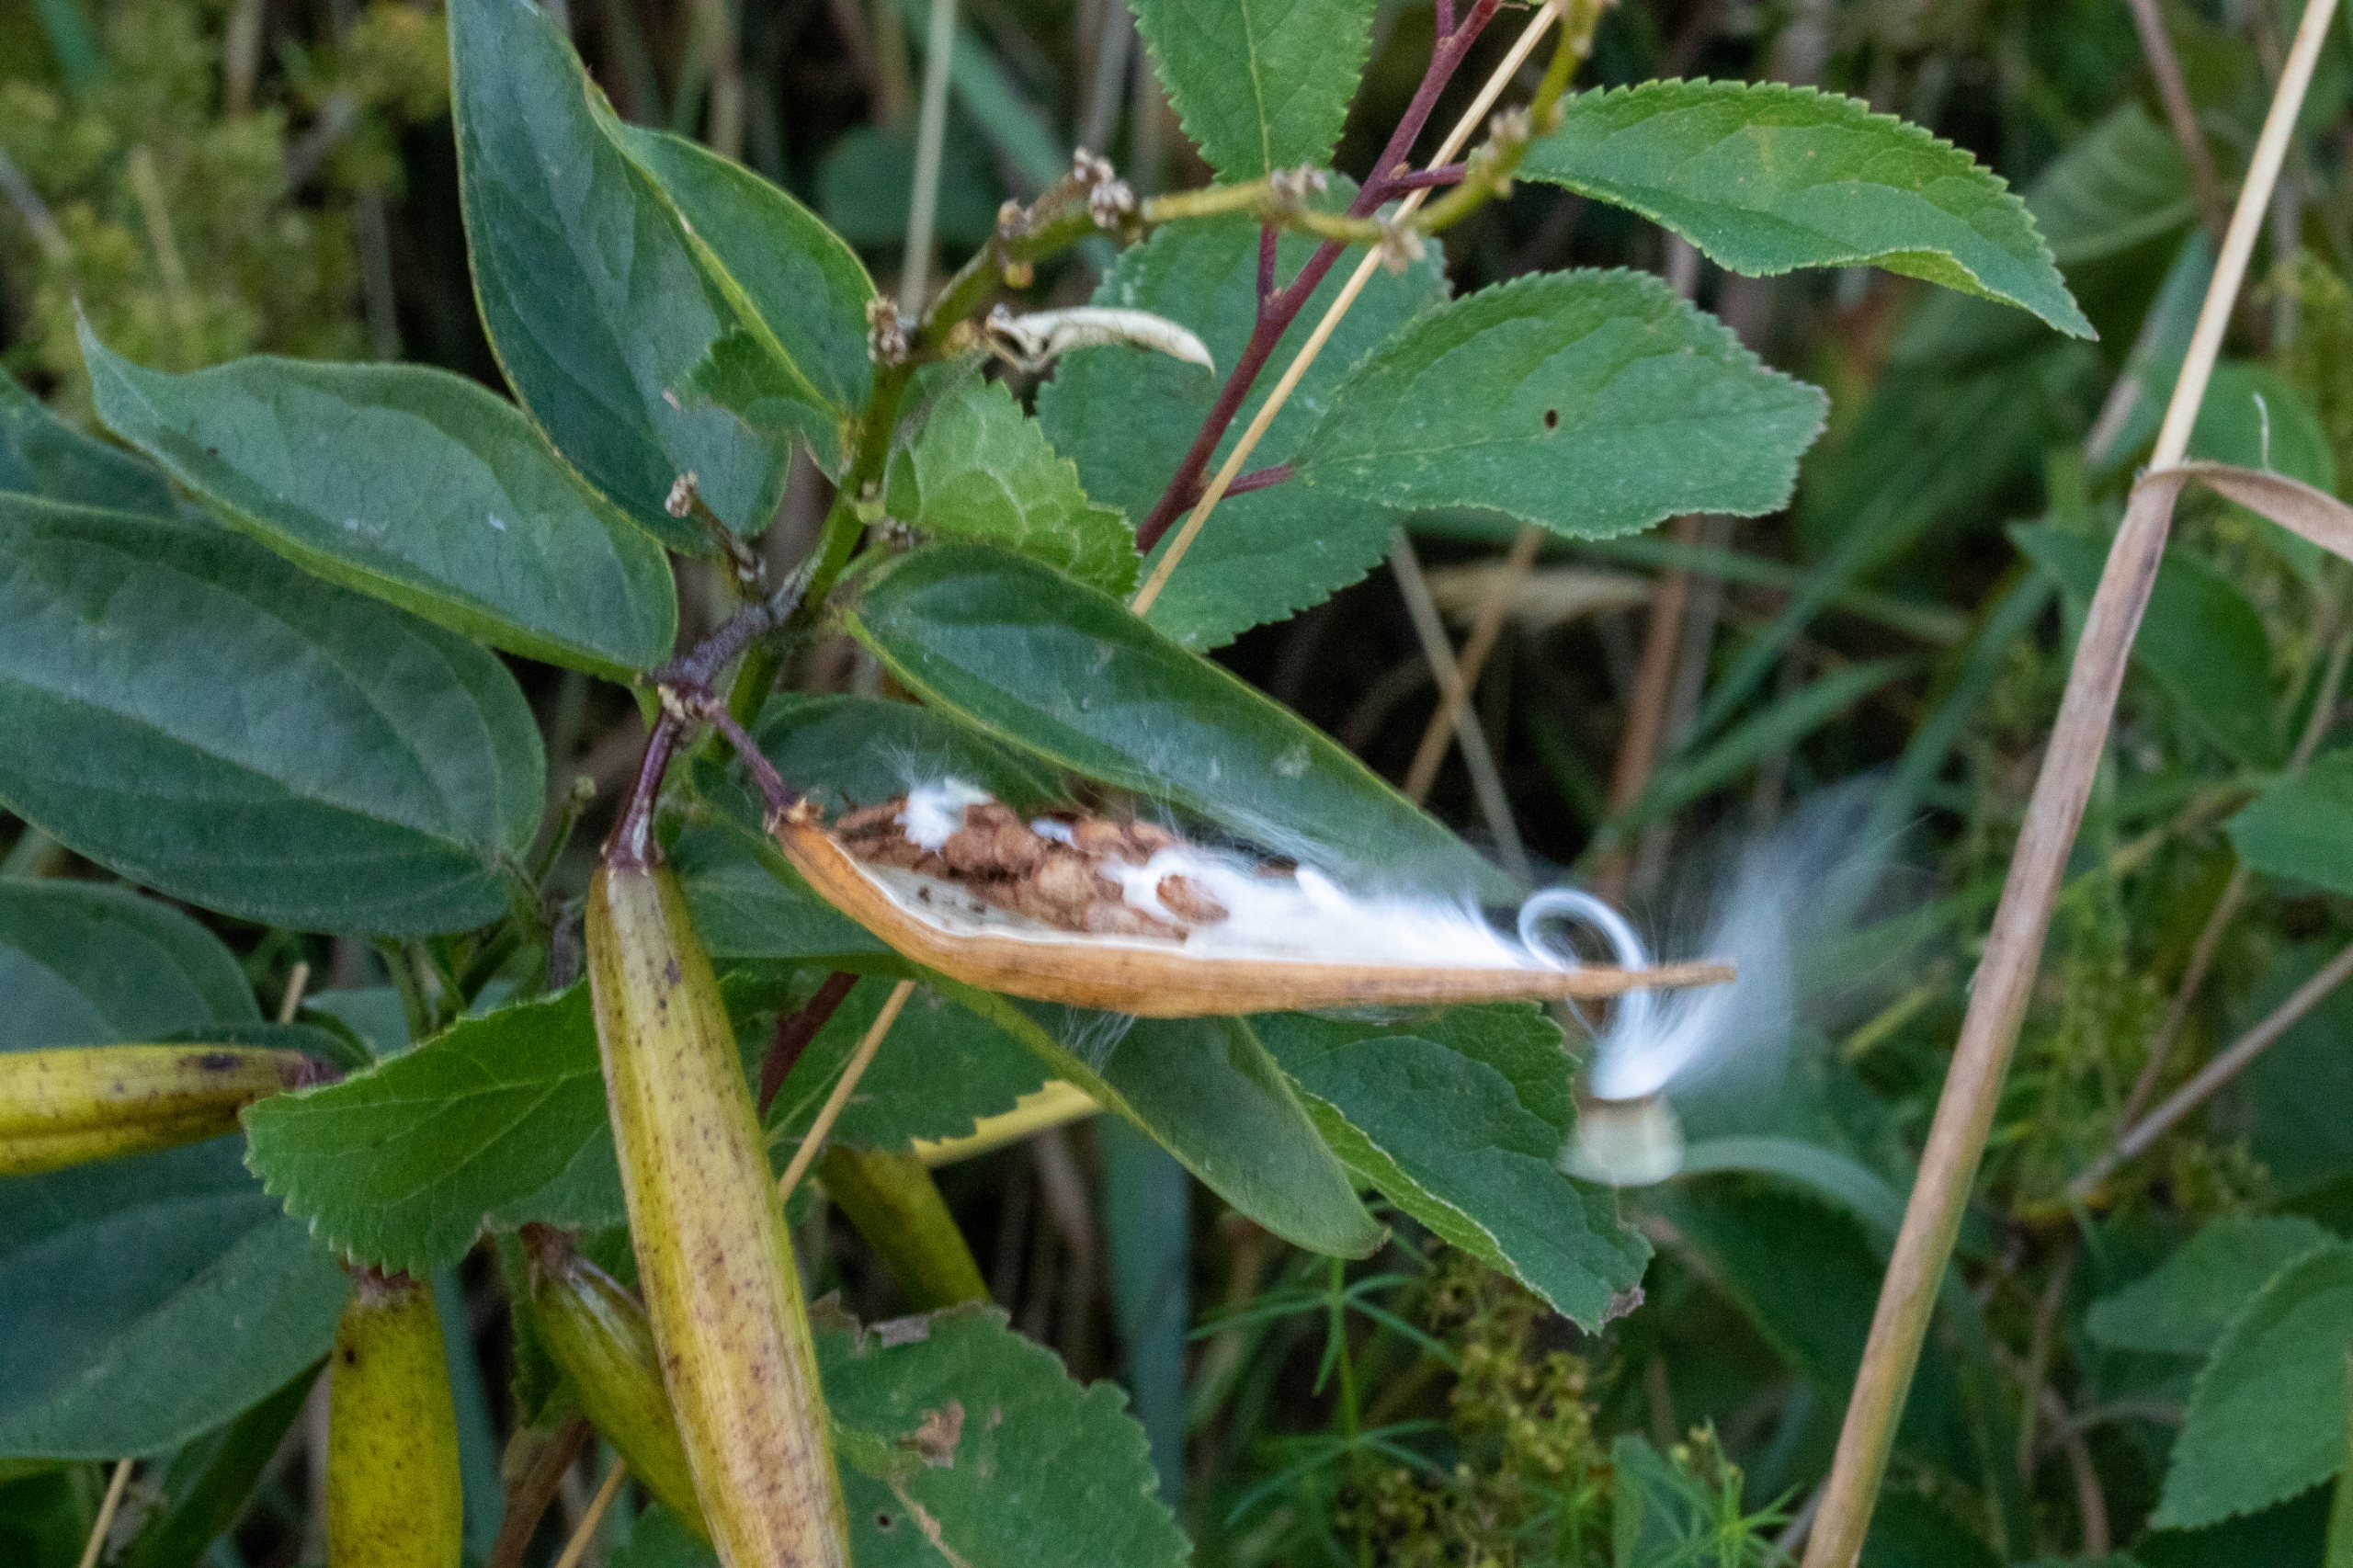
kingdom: Plantae
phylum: Tracheophyta
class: Magnoliopsida
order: Gentianales
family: Apocynaceae
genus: Vincetoxicum
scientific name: Vincetoxicum hirundinaria
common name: Svalerod
